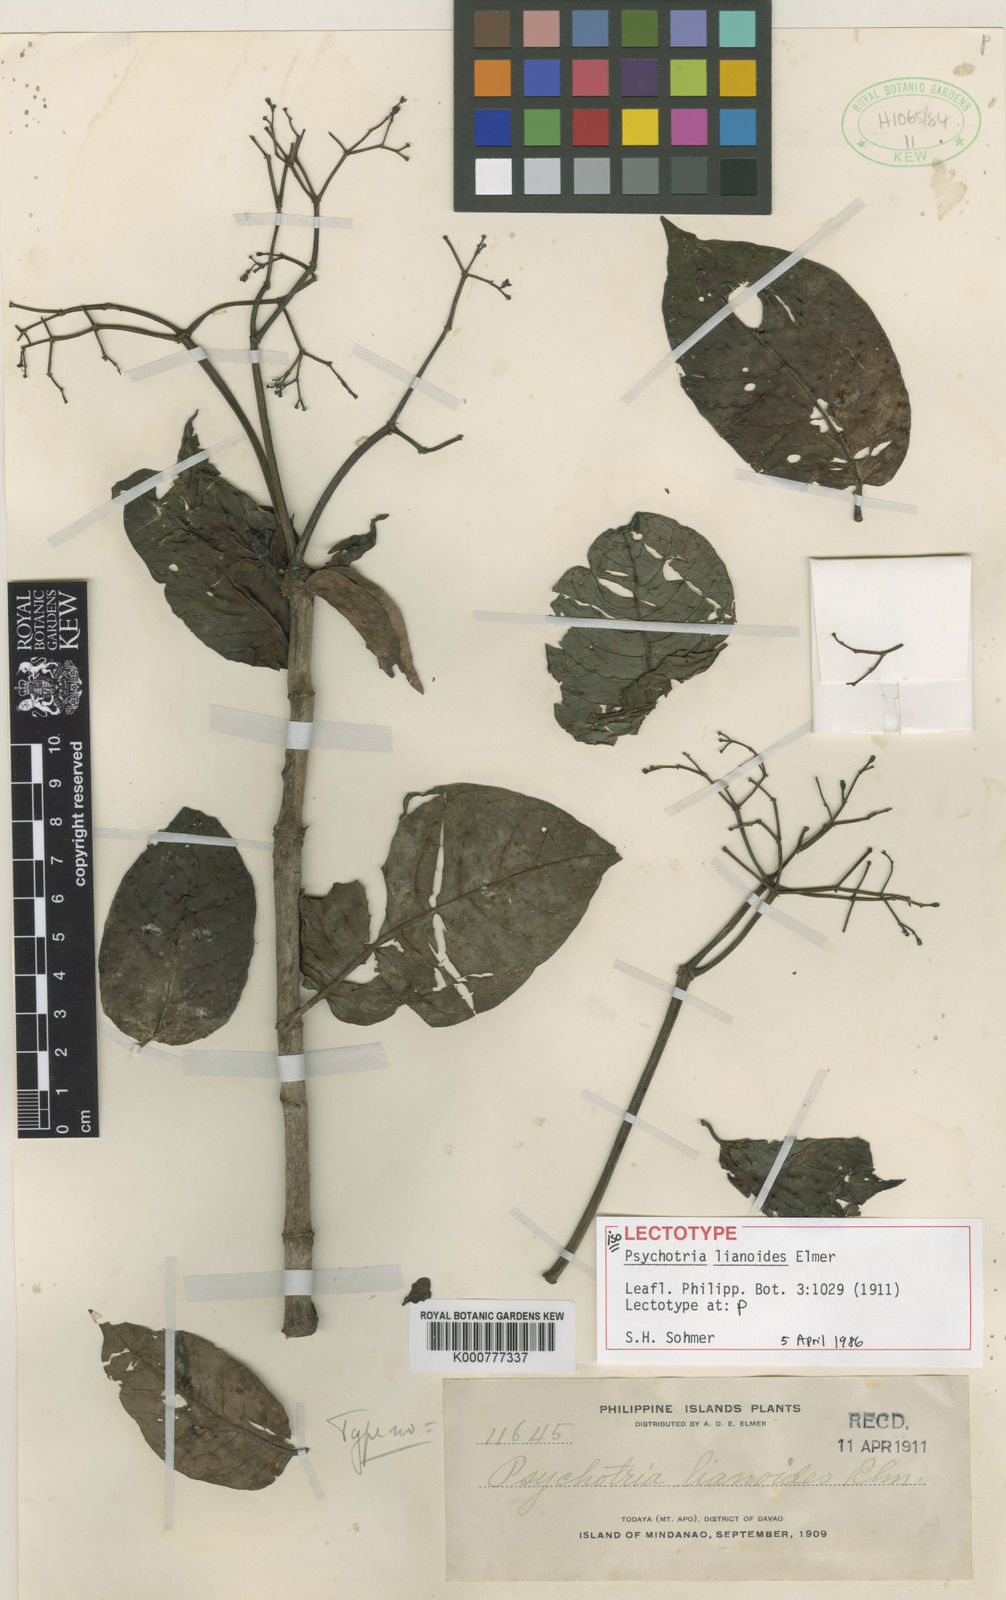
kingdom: Plantae
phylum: Tracheophyta
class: Magnoliopsida
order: Gentianales
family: Rubiaceae
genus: Psychotria
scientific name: Psychotria lianoides
